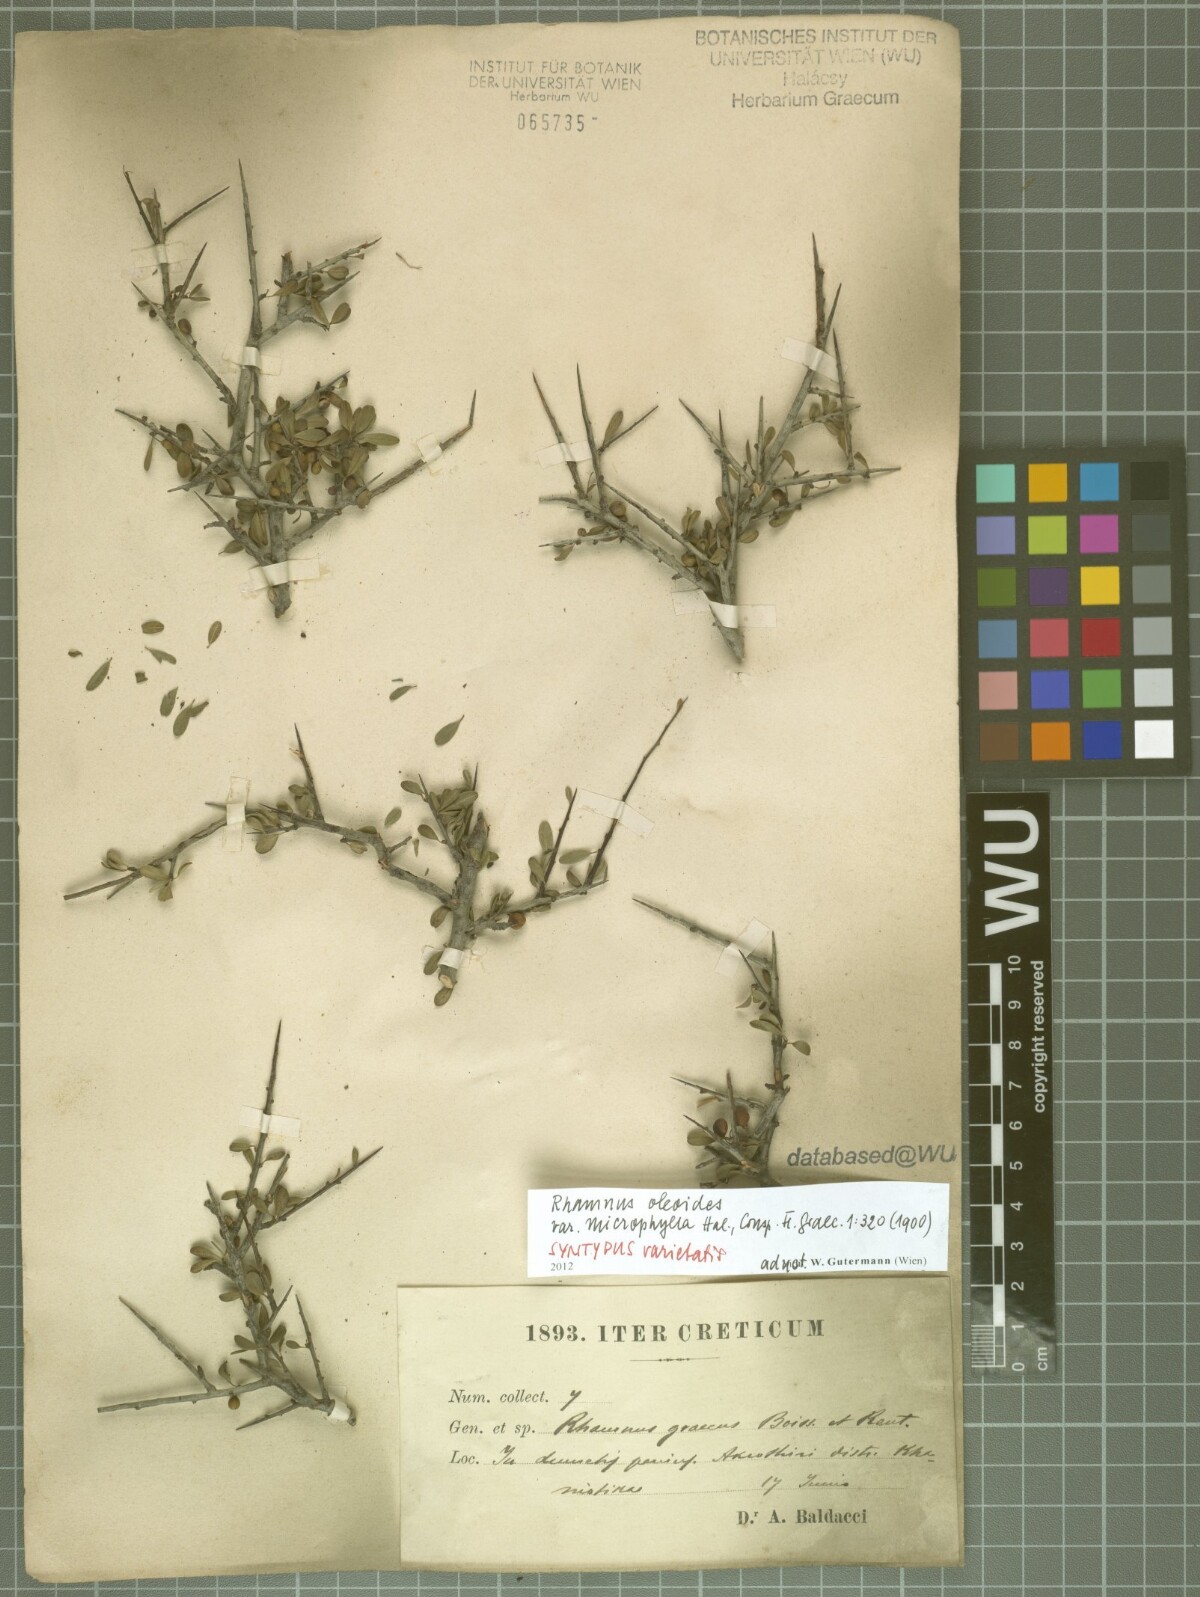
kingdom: Plantae
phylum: Tracheophyta
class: Magnoliopsida
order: Rosales
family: Rhamnaceae
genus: Rhamnus
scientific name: Rhamnus oleoides
